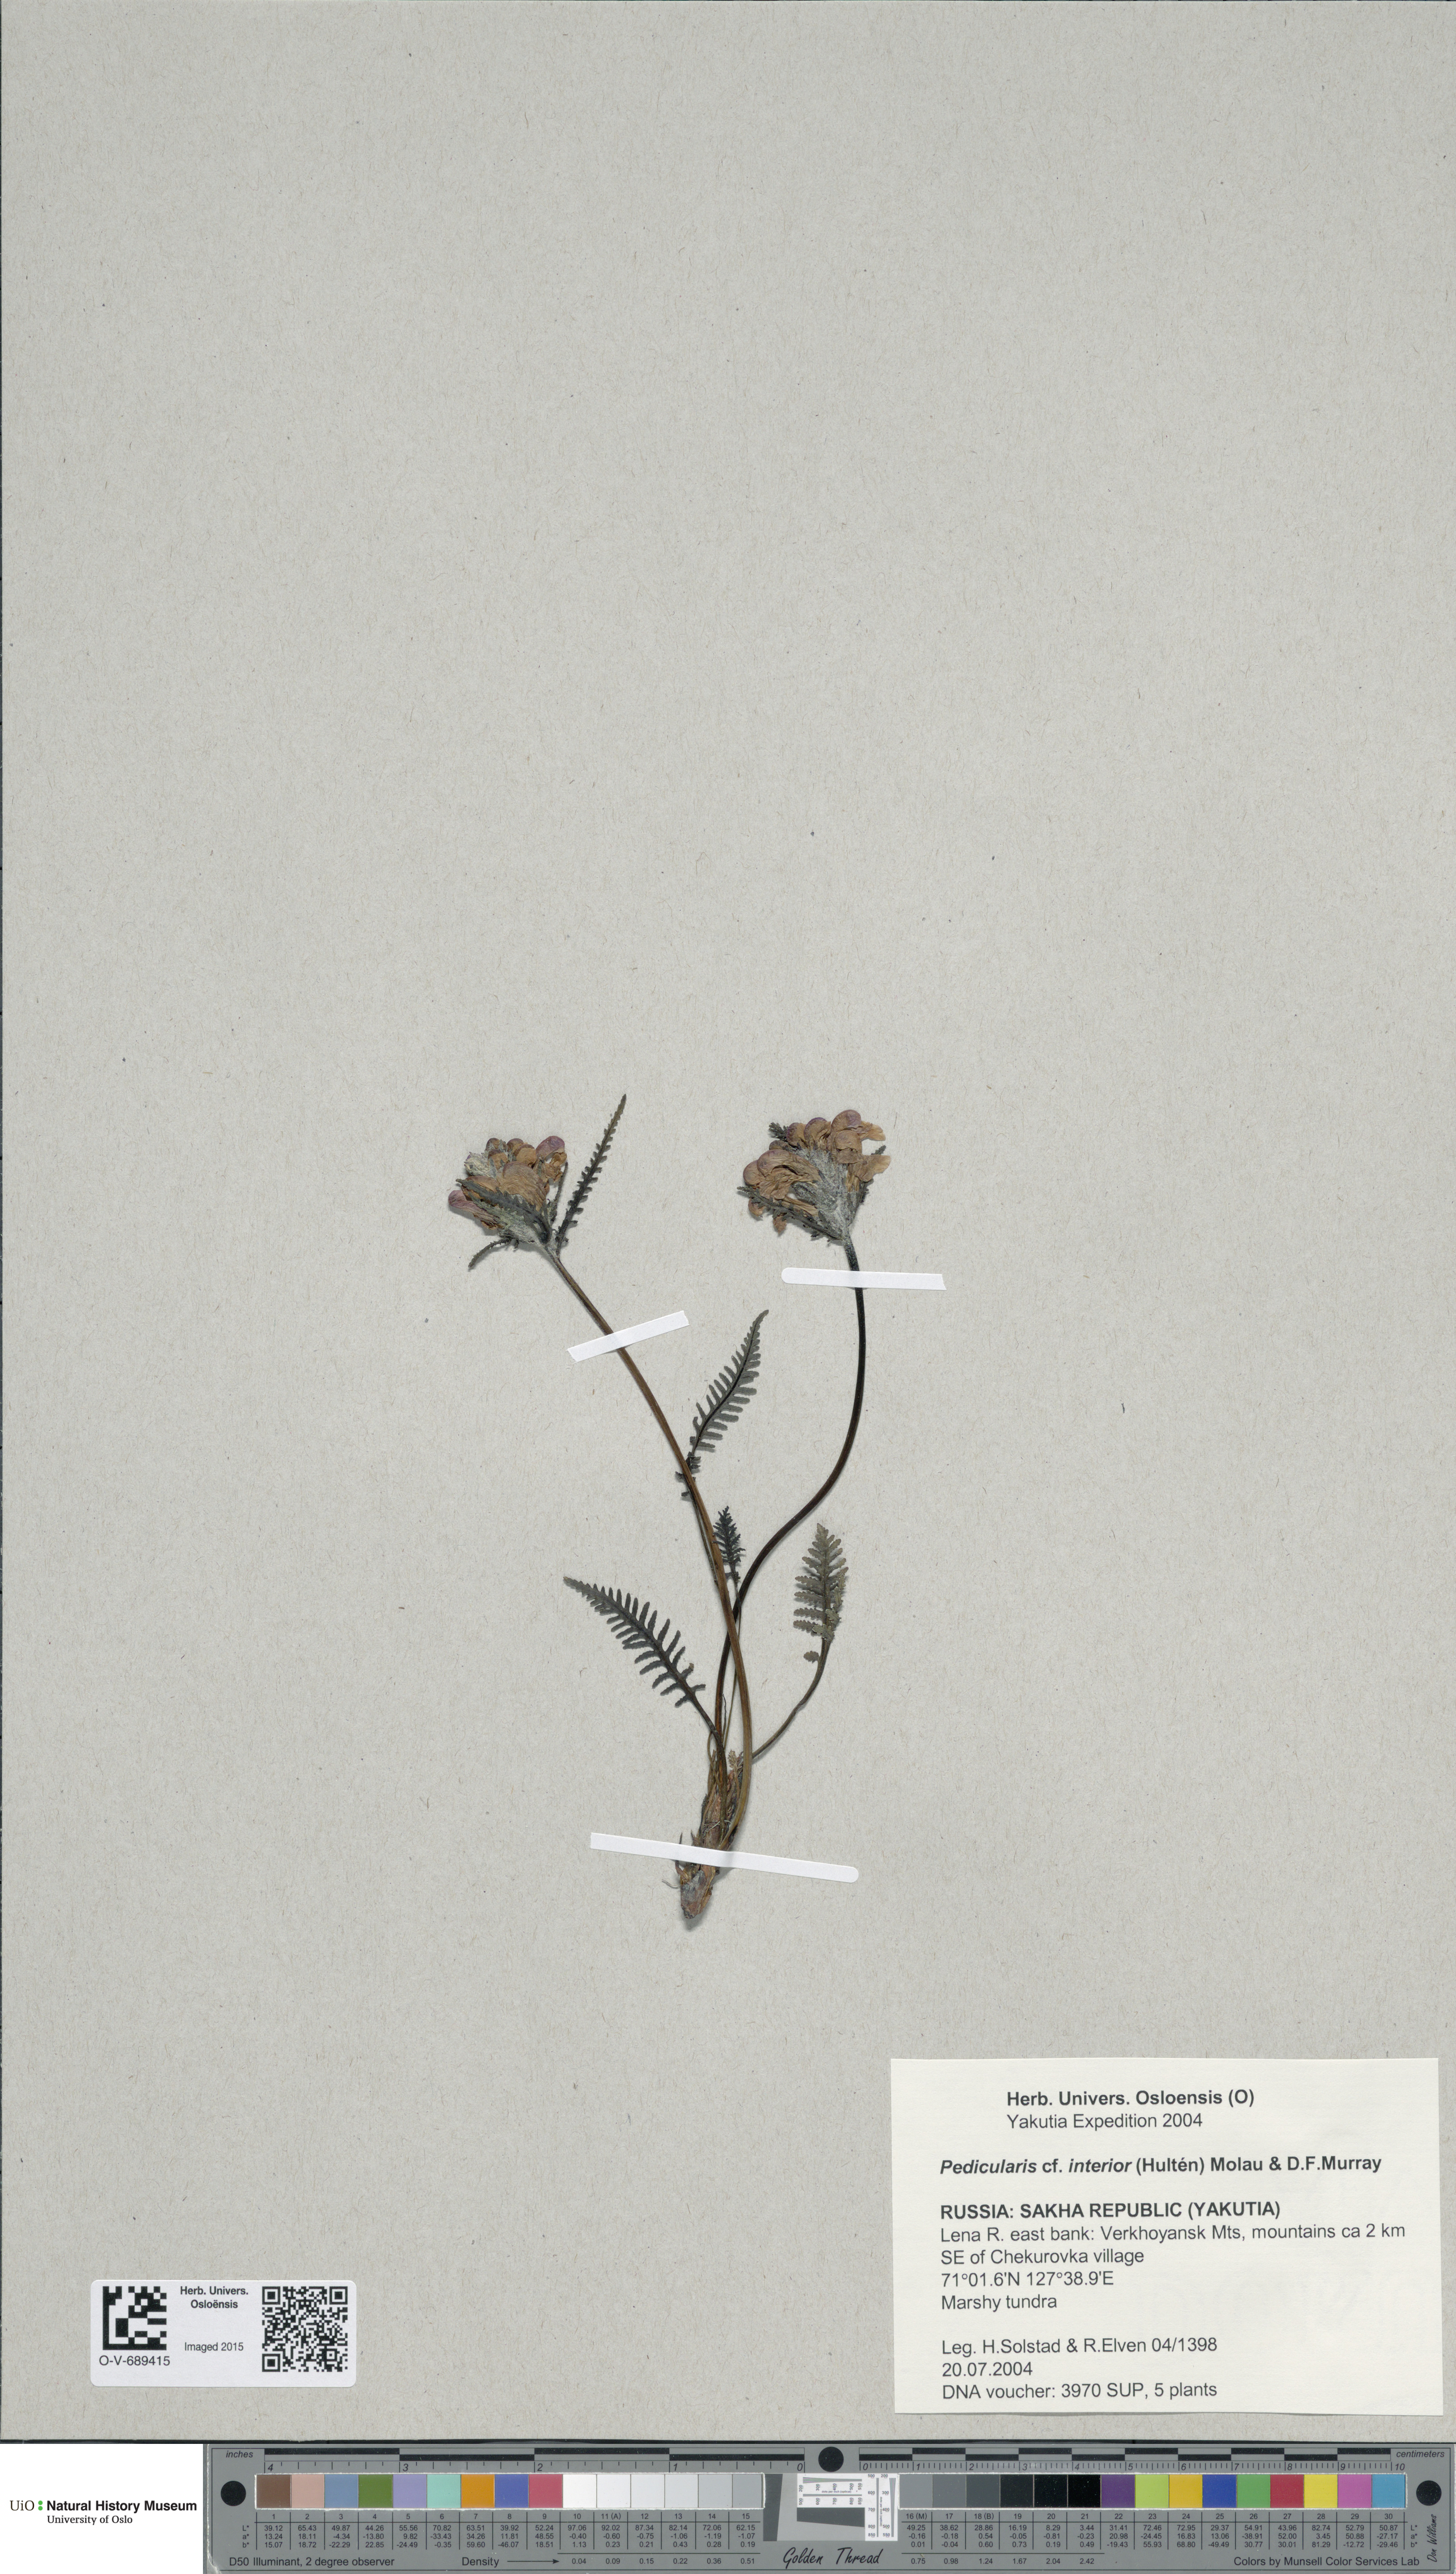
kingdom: Plantae
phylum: Tracheophyta
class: Magnoliopsida
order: Lamiales
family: Orobanchaceae
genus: Pedicularis
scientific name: Pedicularis interior
